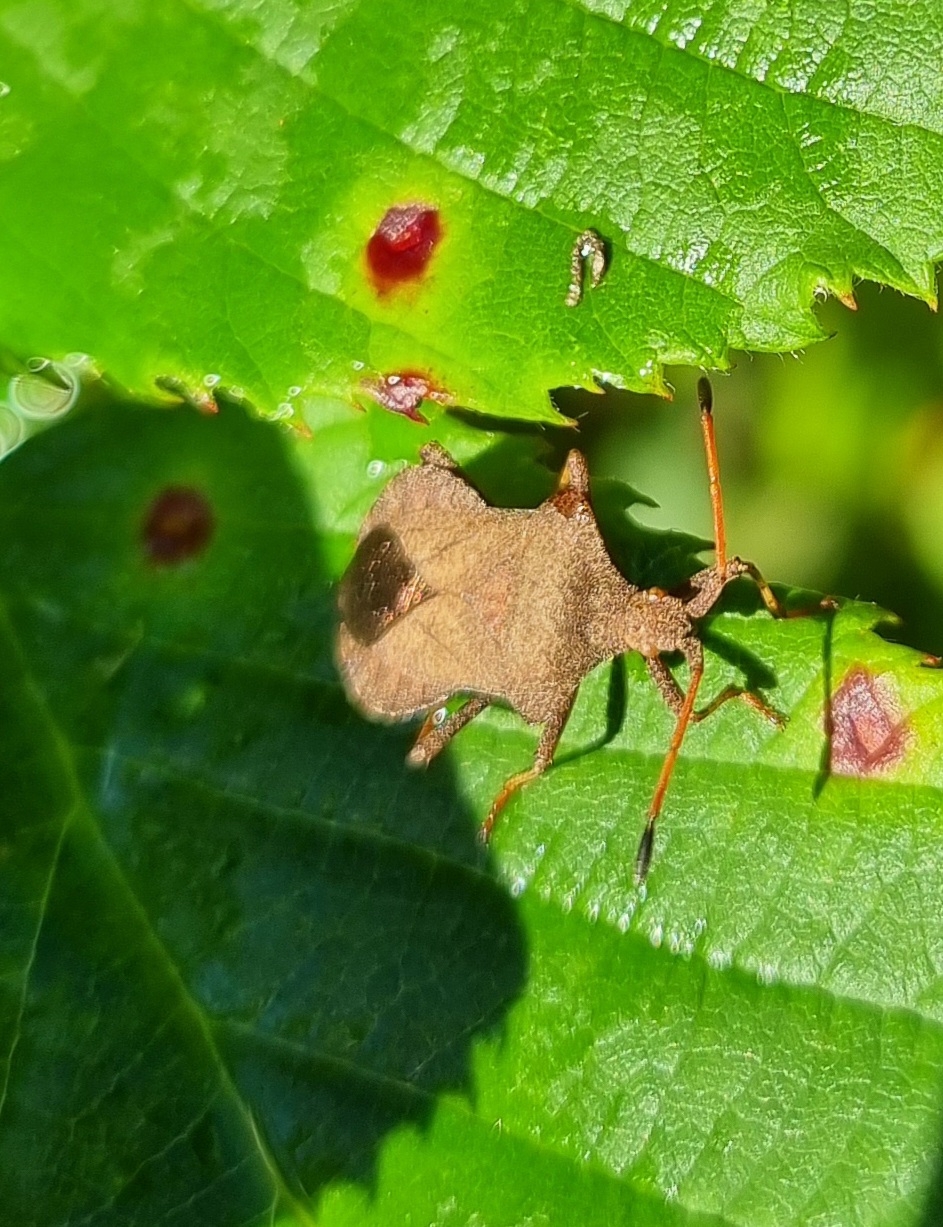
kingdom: Animalia
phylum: Arthropoda
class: Insecta
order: Hemiptera
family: Coreidae
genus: Coreus
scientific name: Coreus marginatus
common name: Skræppetæge
